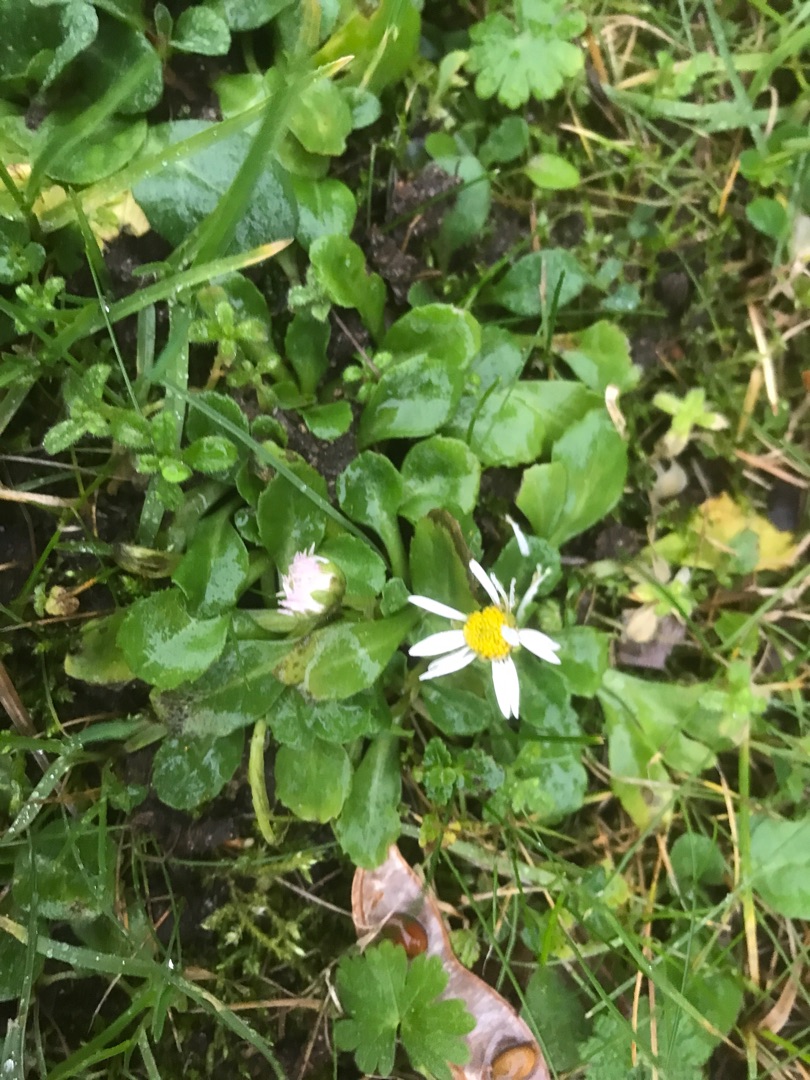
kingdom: Plantae
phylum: Tracheophyta
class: Magnoliopsida
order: Asterales
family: Asteraceae
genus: Bellis
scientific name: Bellis perennis
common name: Tusindfryd
